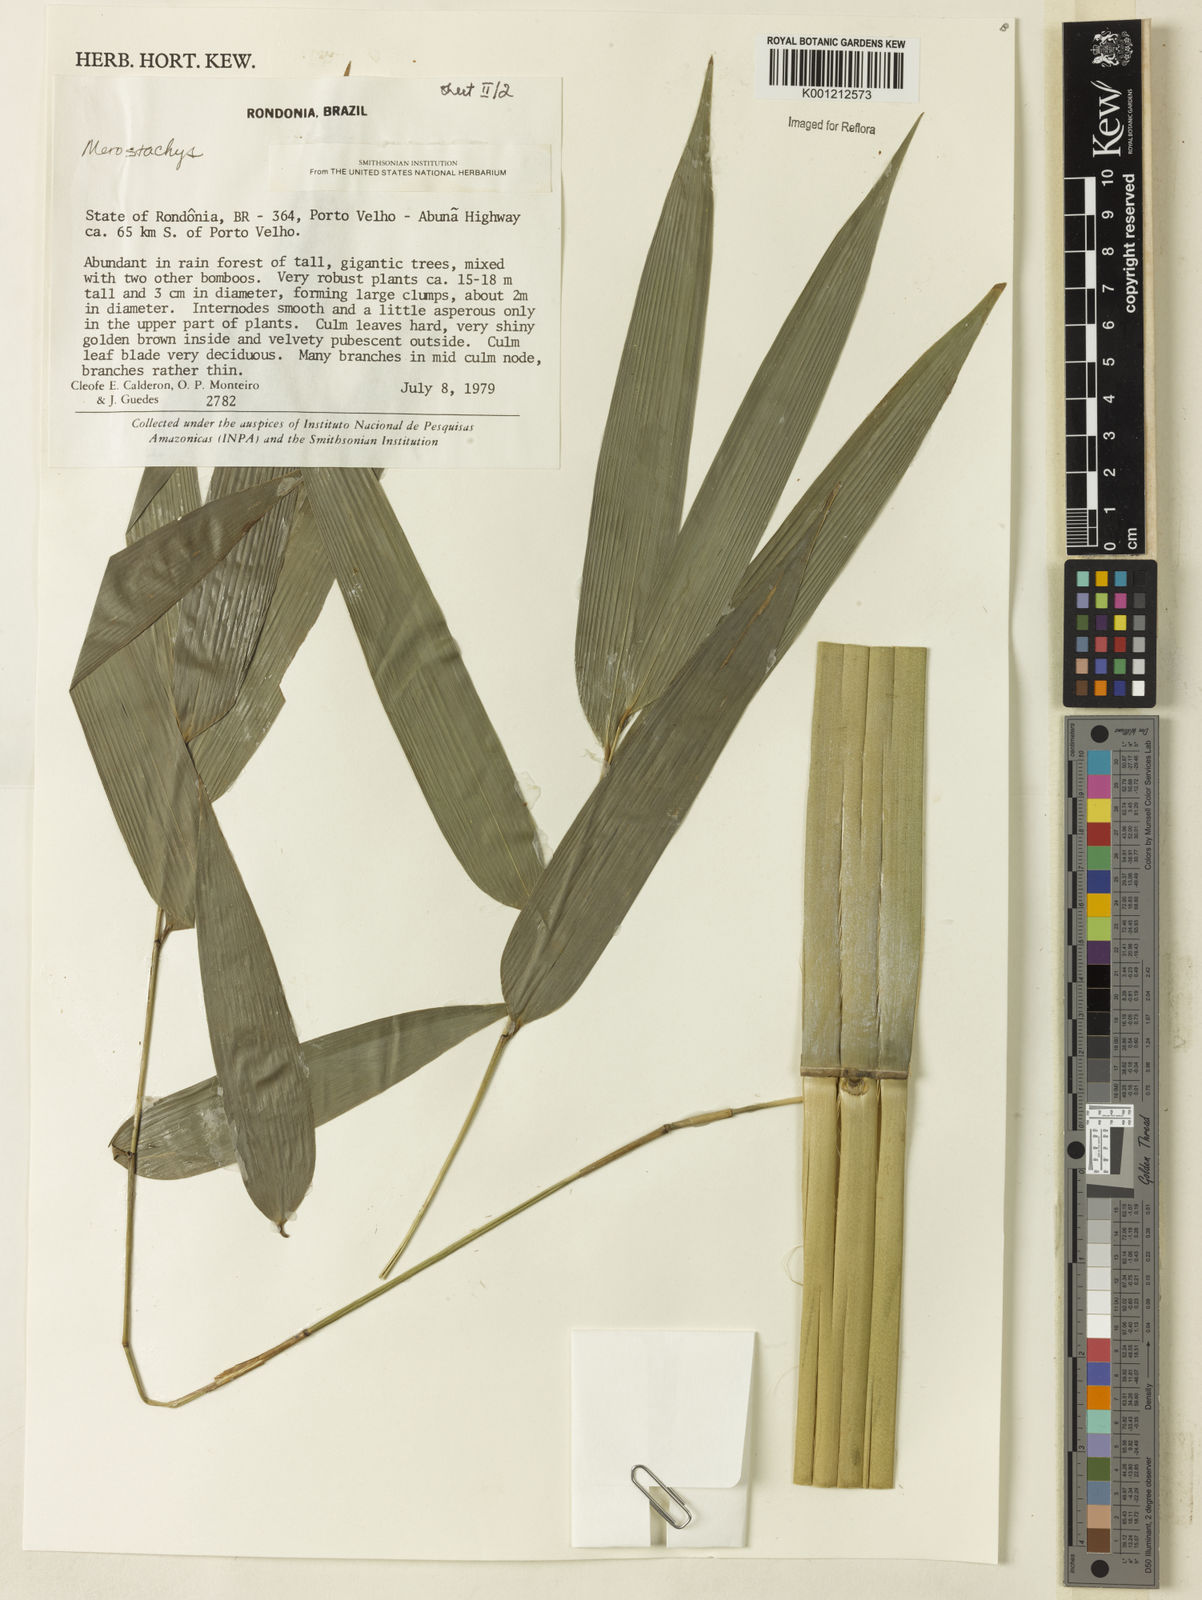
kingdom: Plantae
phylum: Tracheophyta
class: Liliopsida
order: Poales
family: Poaceae
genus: Merostachys
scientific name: Merostachys
